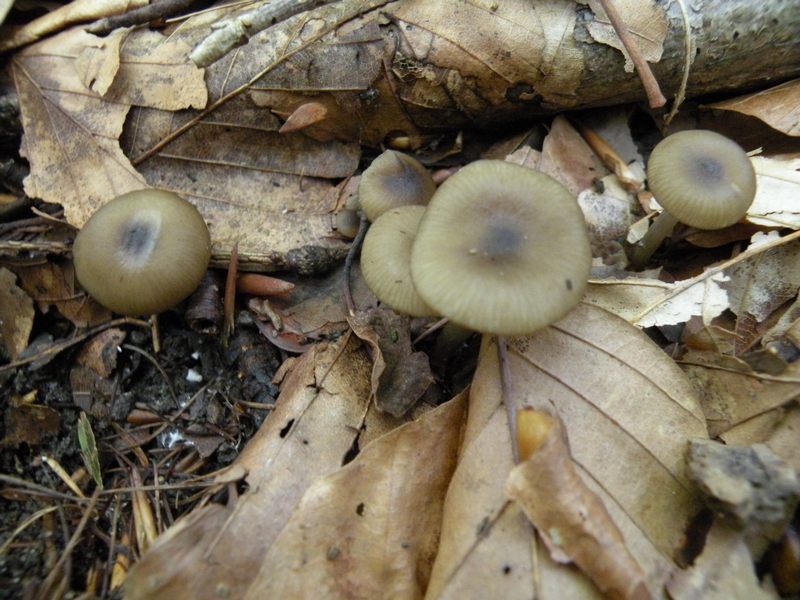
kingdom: Fungi
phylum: Basidiomycota
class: Agaricomycetes
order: Agaricales
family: Entolomataceae
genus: Entoloma
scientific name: Entoloma subradiatum
